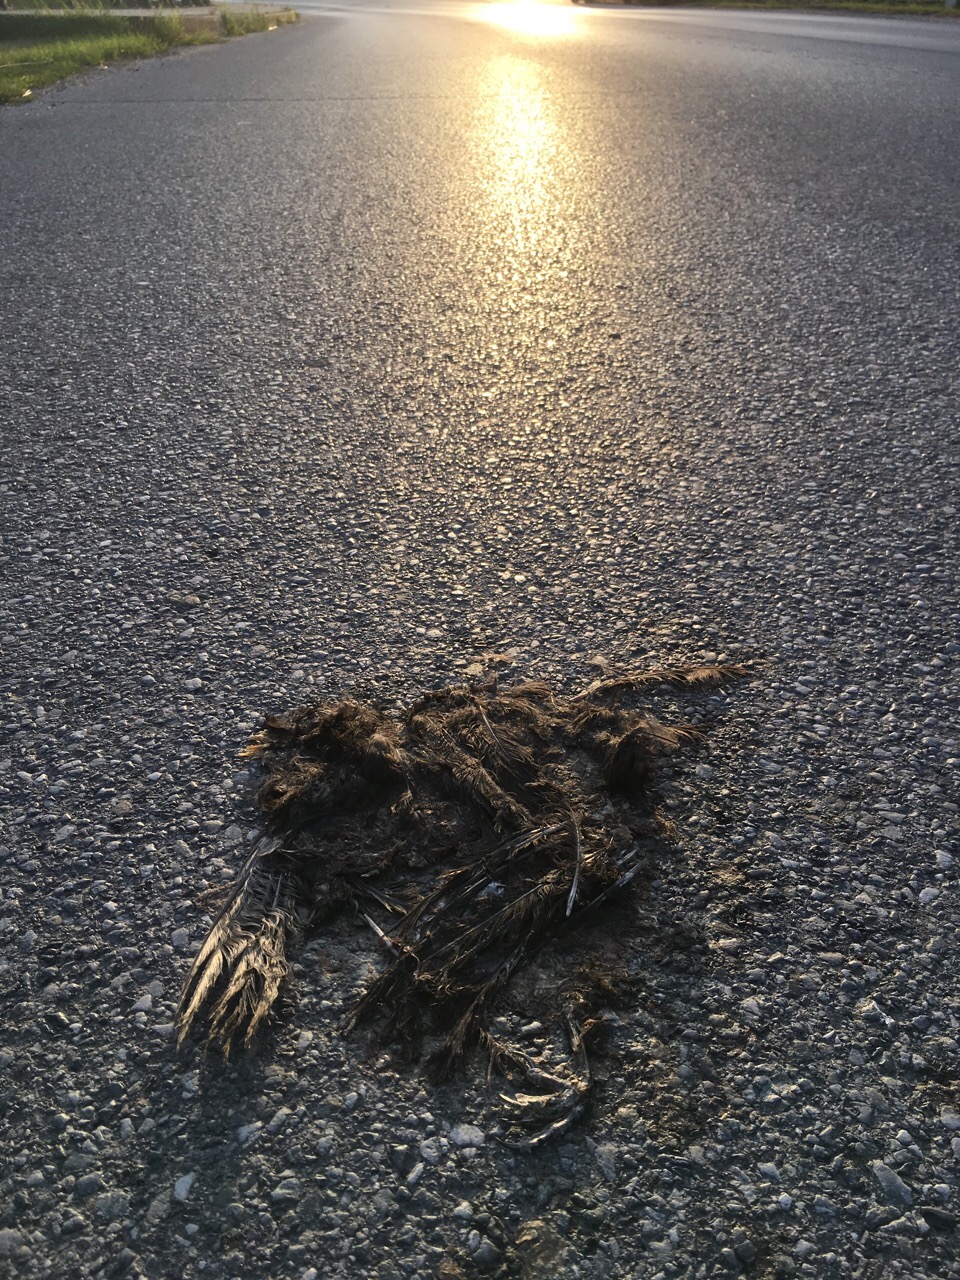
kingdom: Animalia
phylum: Chordata
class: Aves
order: Passeriformes
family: Turdidae
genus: Turdus
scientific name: Turdus merula
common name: Common blackbird
